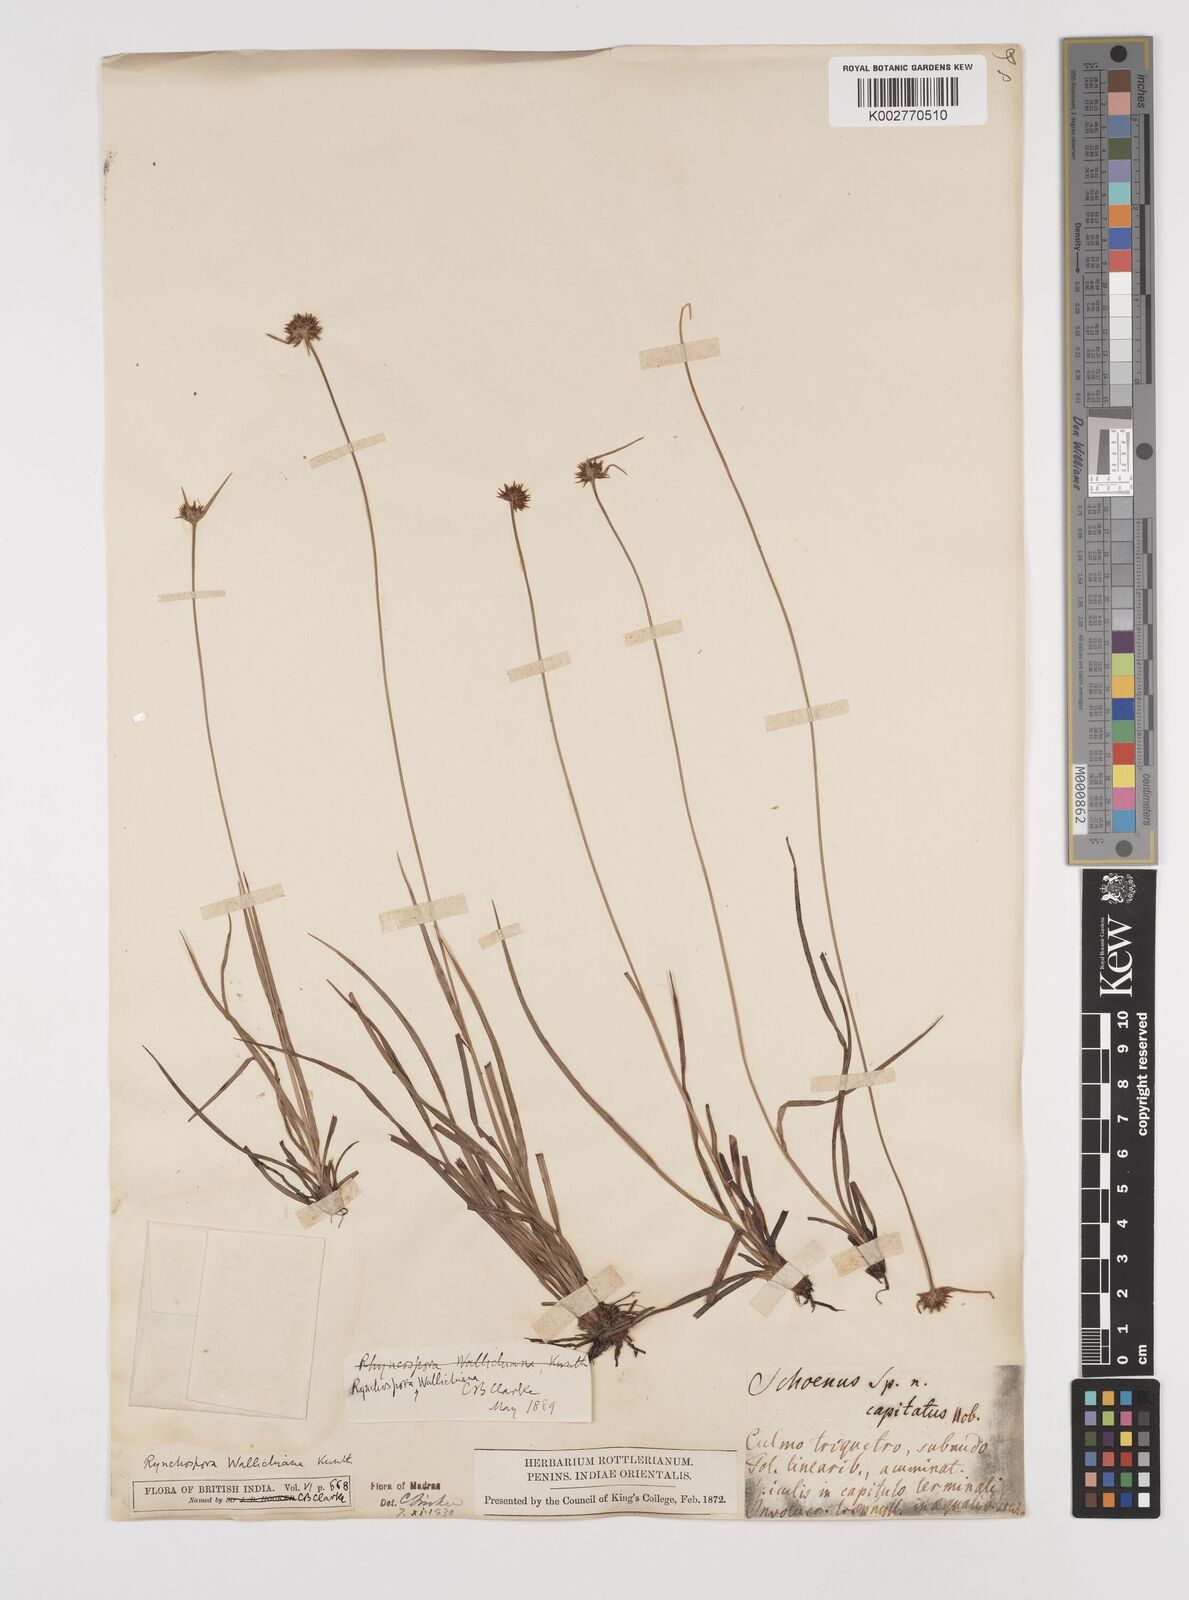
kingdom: Plantae
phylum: Tracheophyta
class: Liliopsida
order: Poales
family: Cyperaceae
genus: Rhynchospora
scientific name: Rhynchospora rubra
